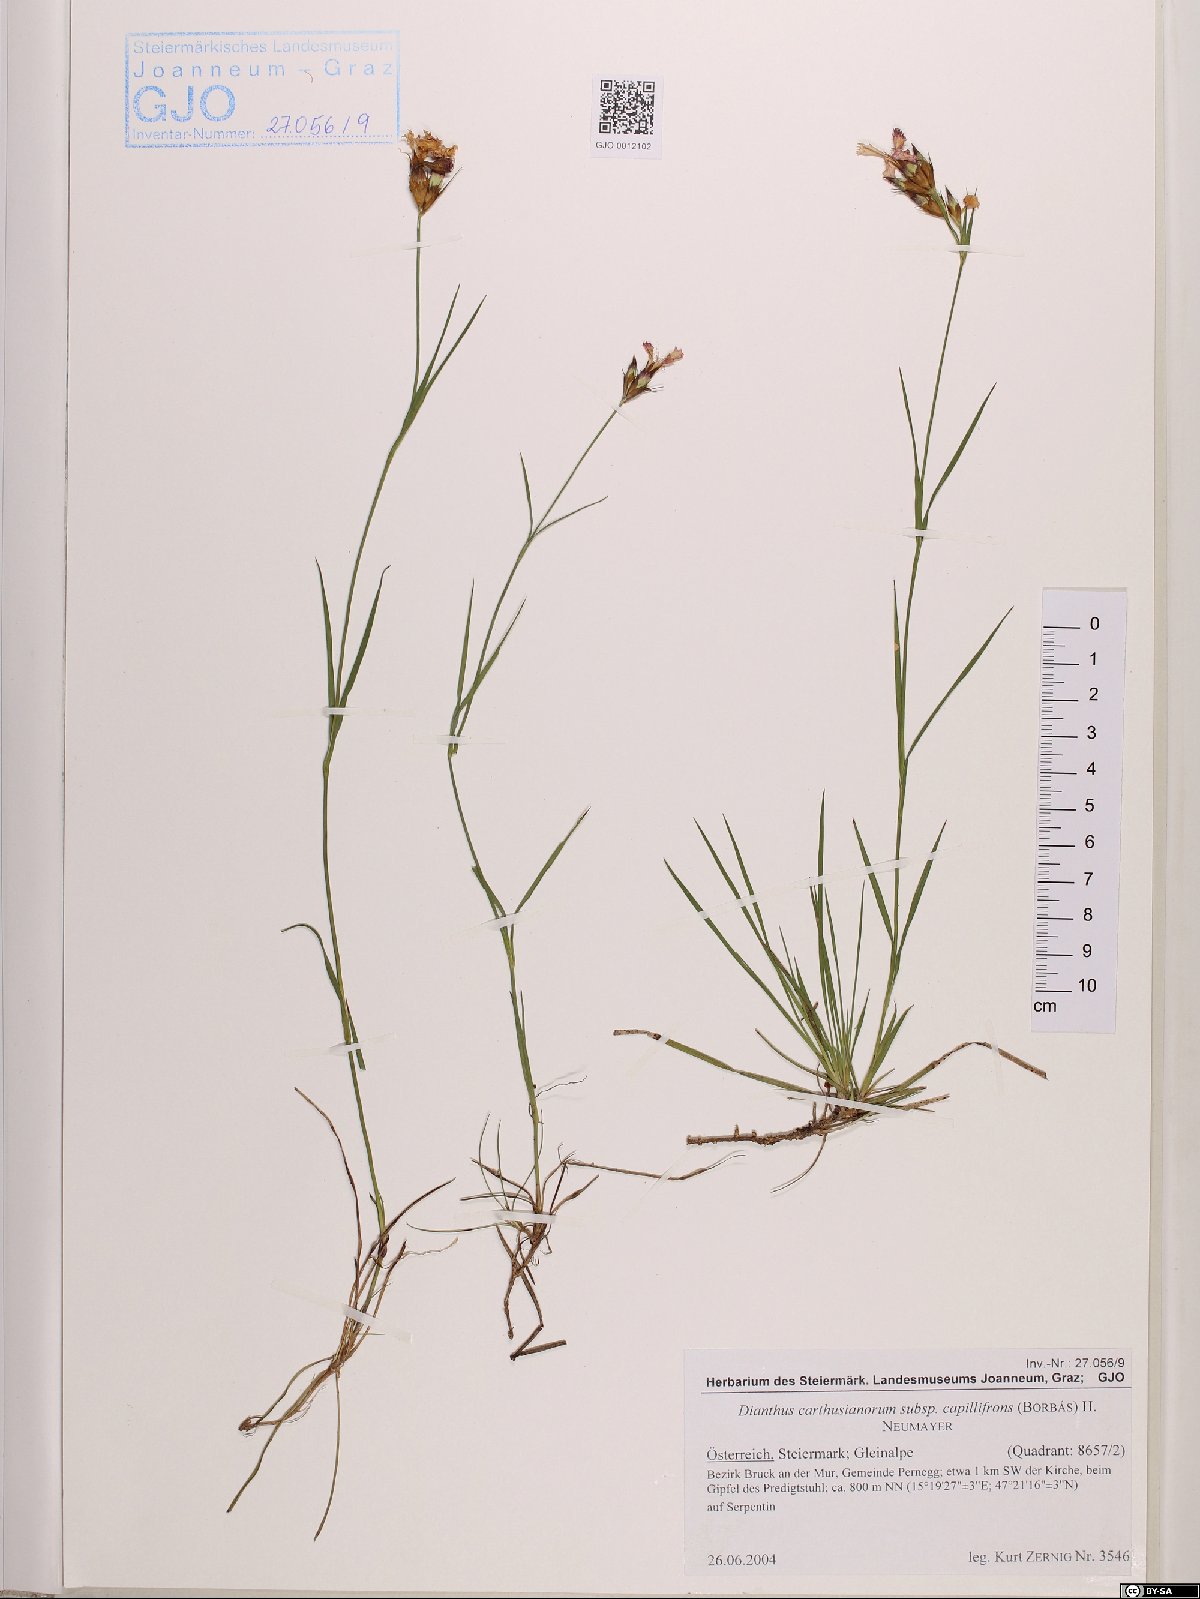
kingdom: Plantae
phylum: Tracheophyta
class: Magnoliopsida
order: Caryophyllales
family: Caryophyllaceae
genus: Dianthus
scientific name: Dianthus carthusianorum
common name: Carthusian pink
